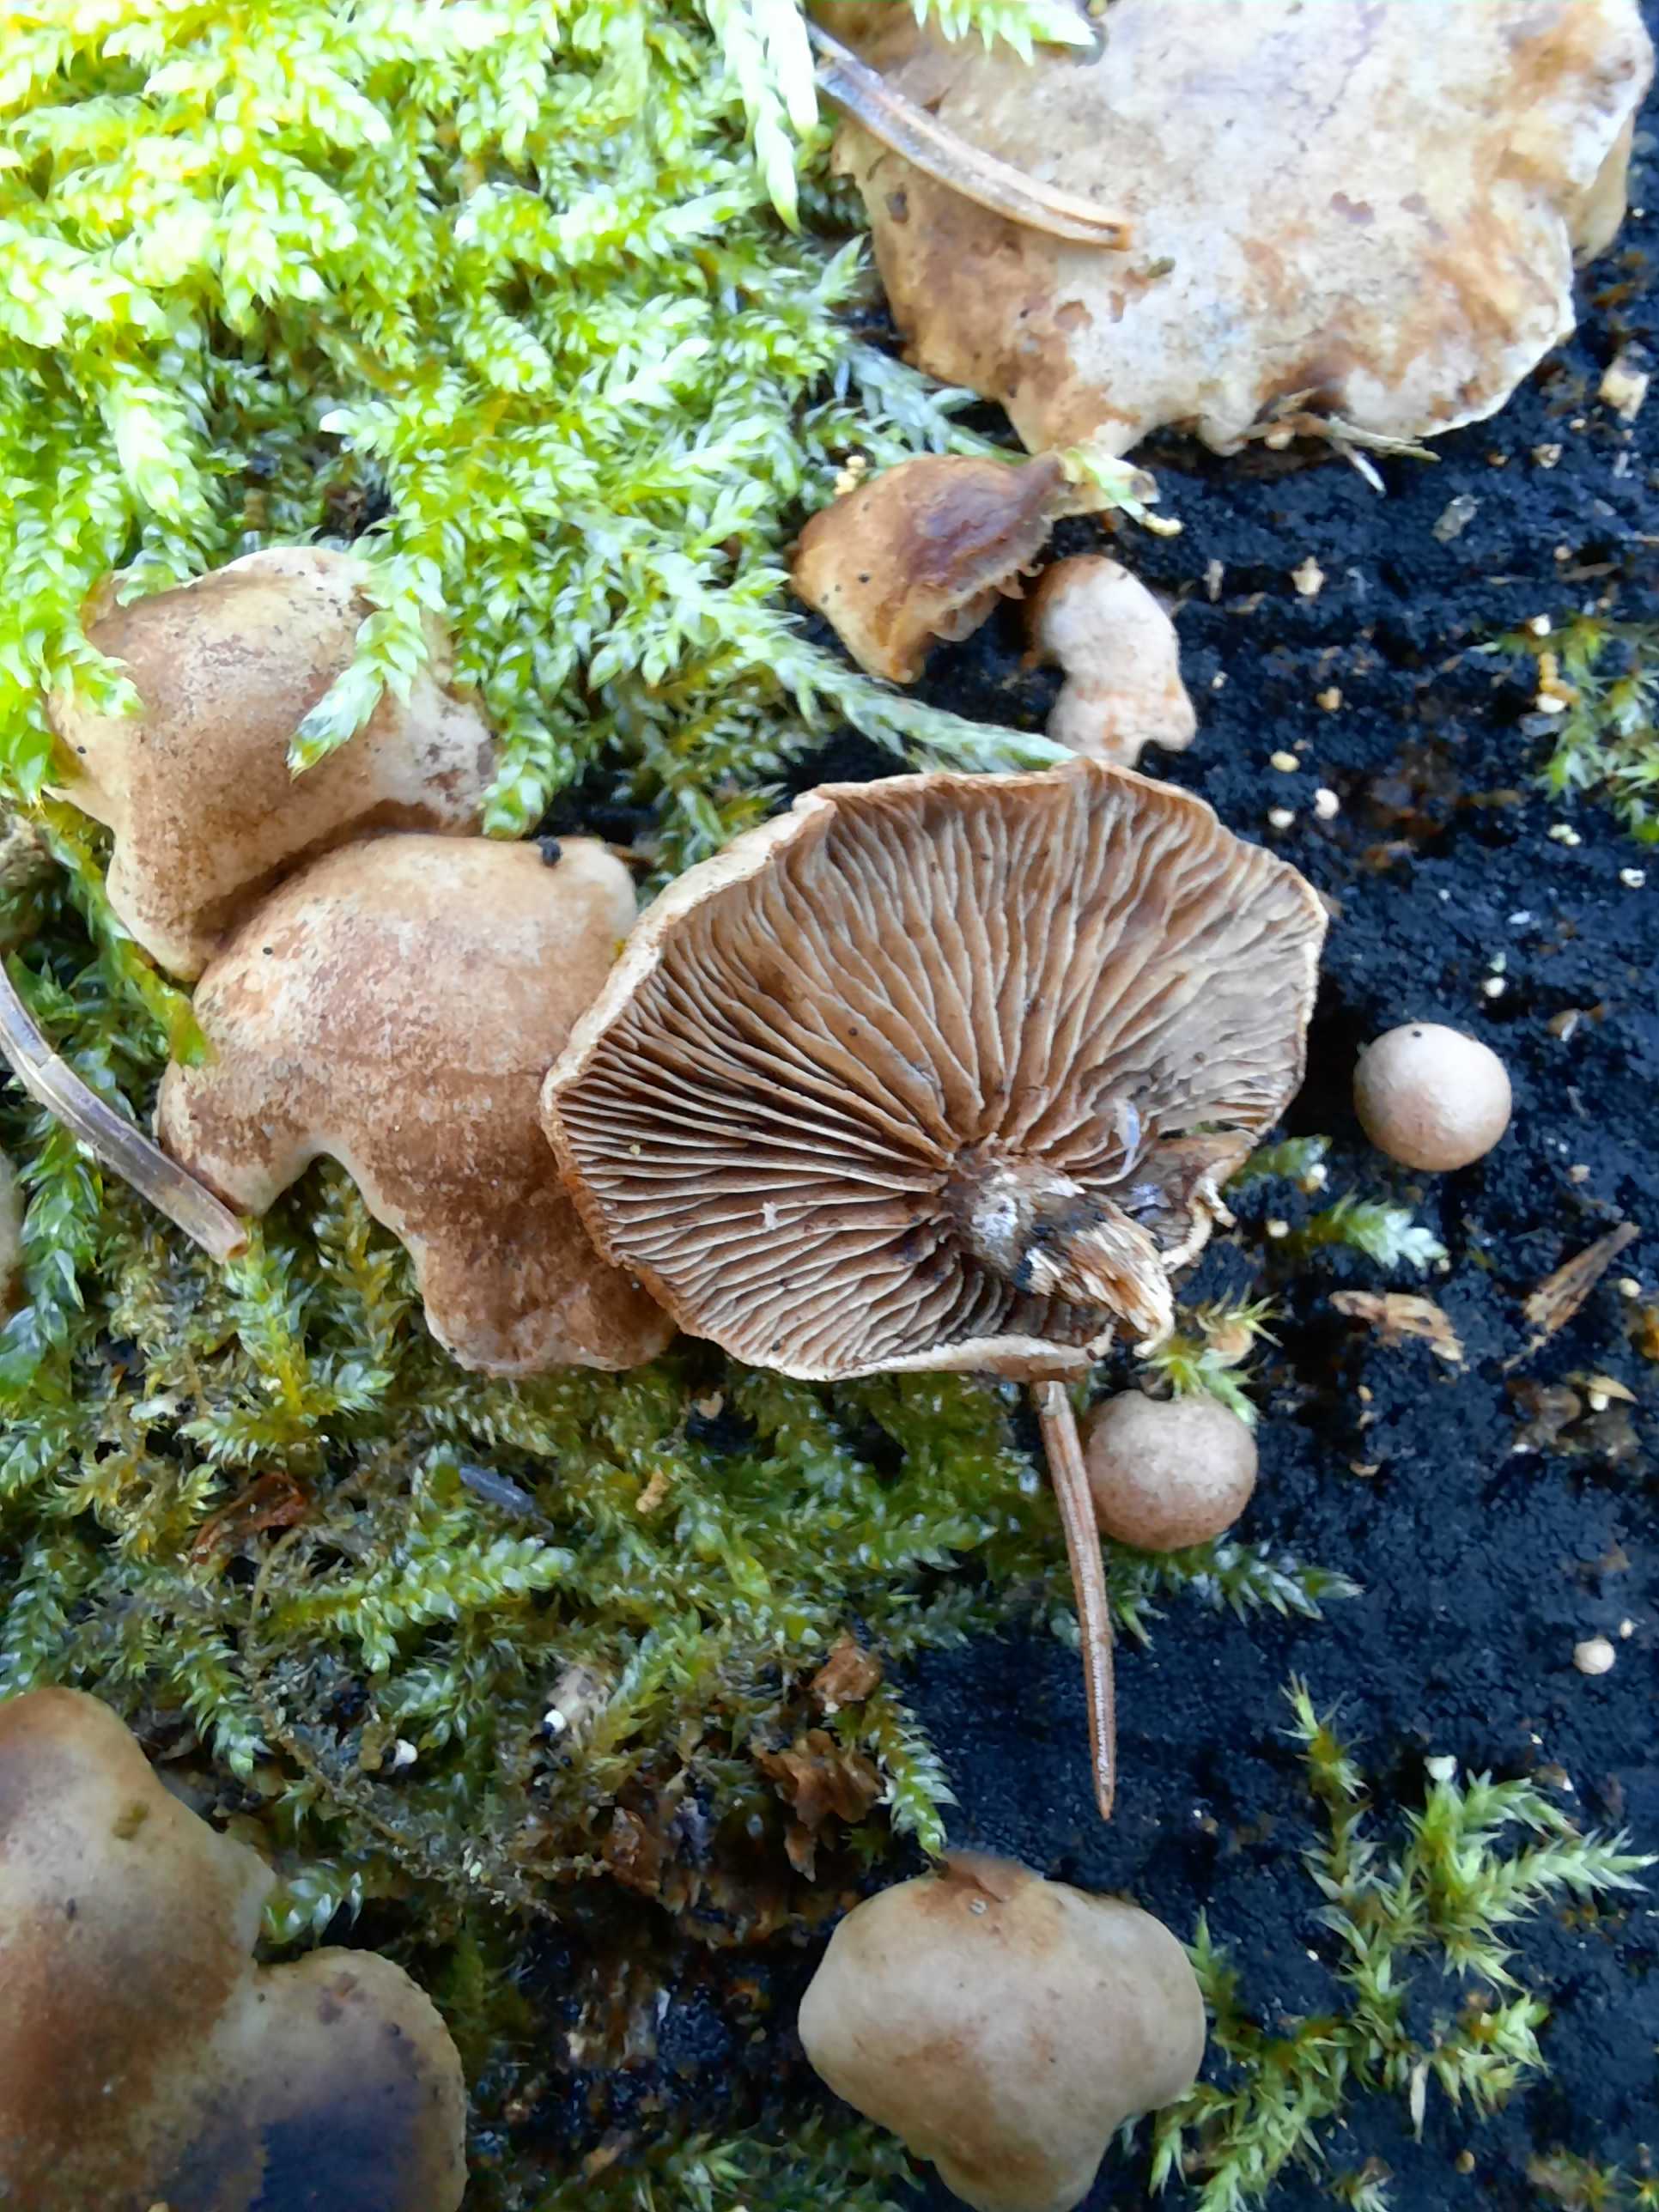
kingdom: Fungi
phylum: Basidiomycota
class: Agaricomycetes
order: Agaricales
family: Strophariaceae
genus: Deconica
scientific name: Deconica horizontalis
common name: ved-stråhat
